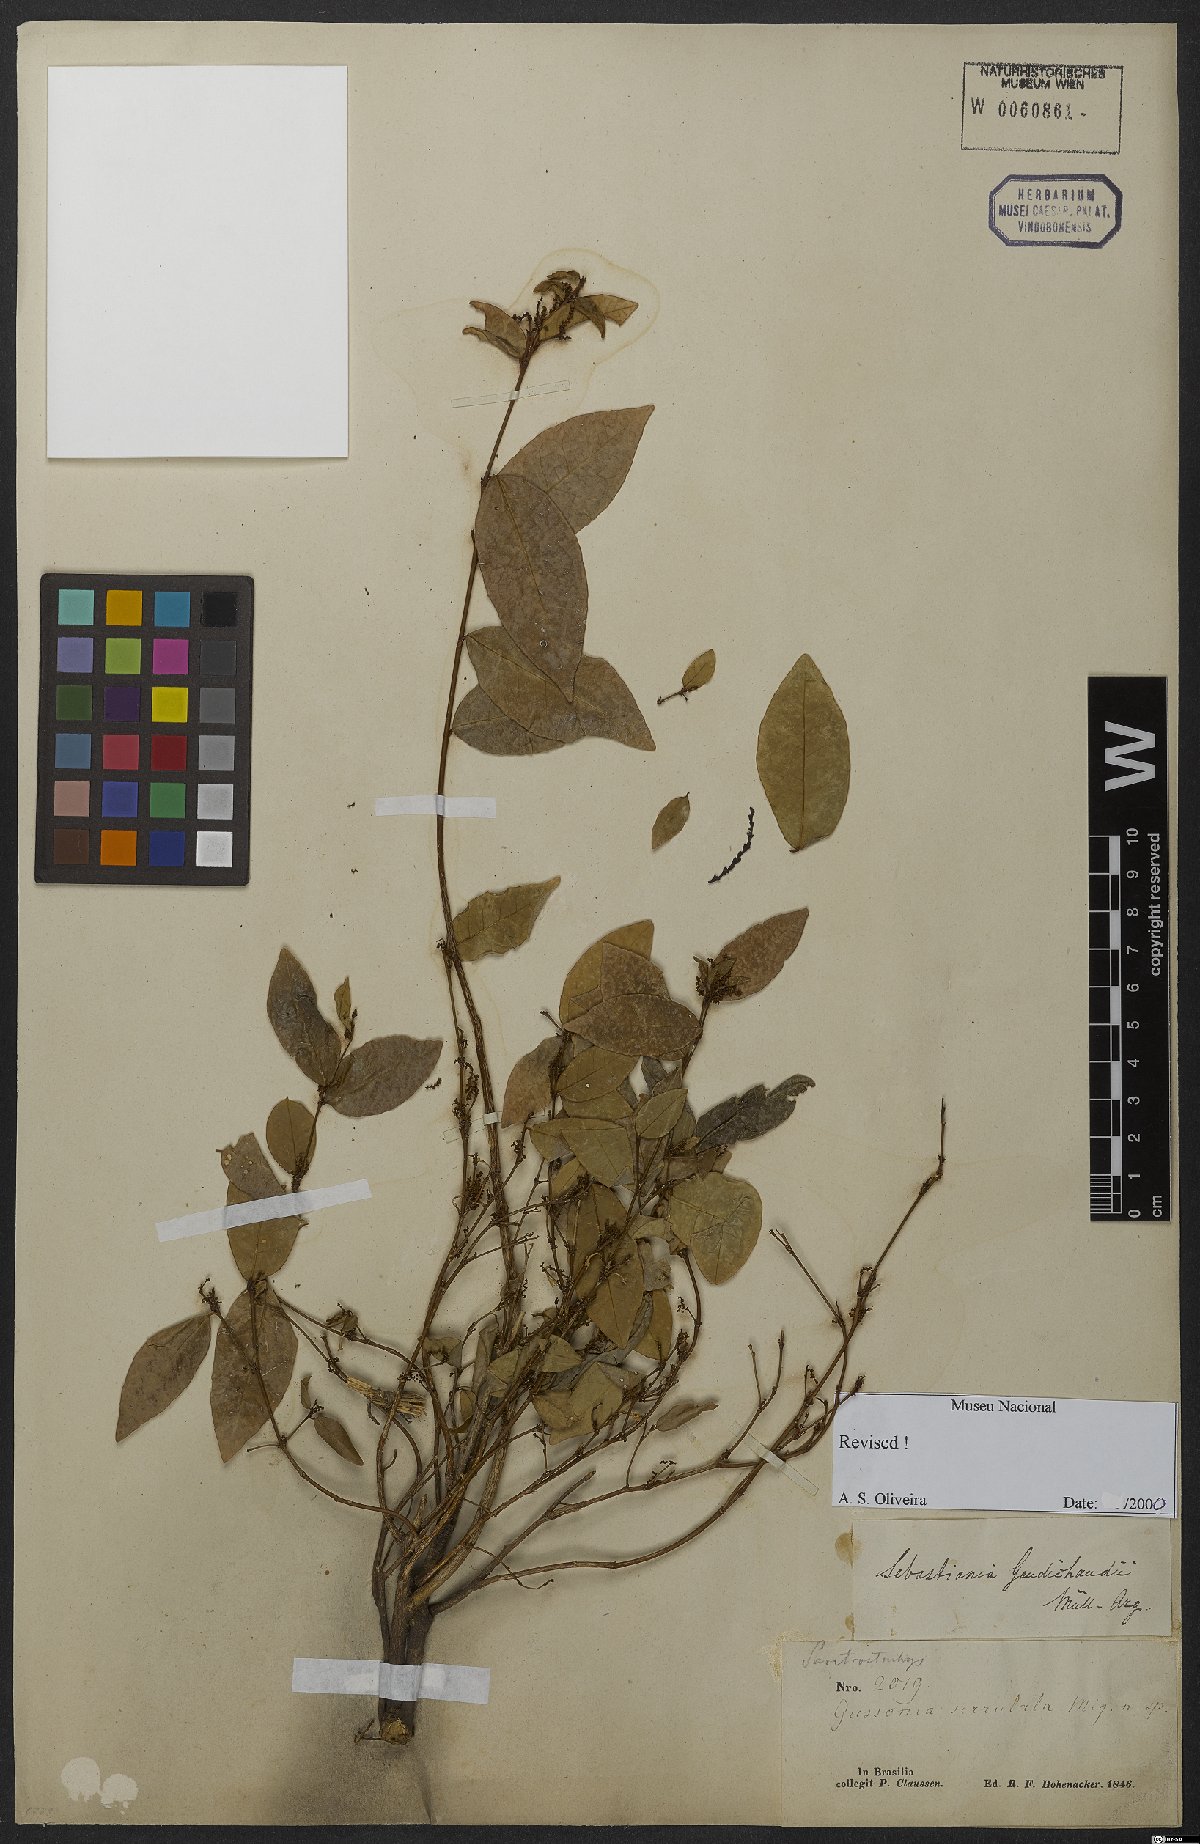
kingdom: Plantae
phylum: Tracheophyta
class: Magnoliopsida
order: Malpighiales
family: Euphorbiaceae
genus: Gymnanthes
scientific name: Gymnanthes gaudichaudii
